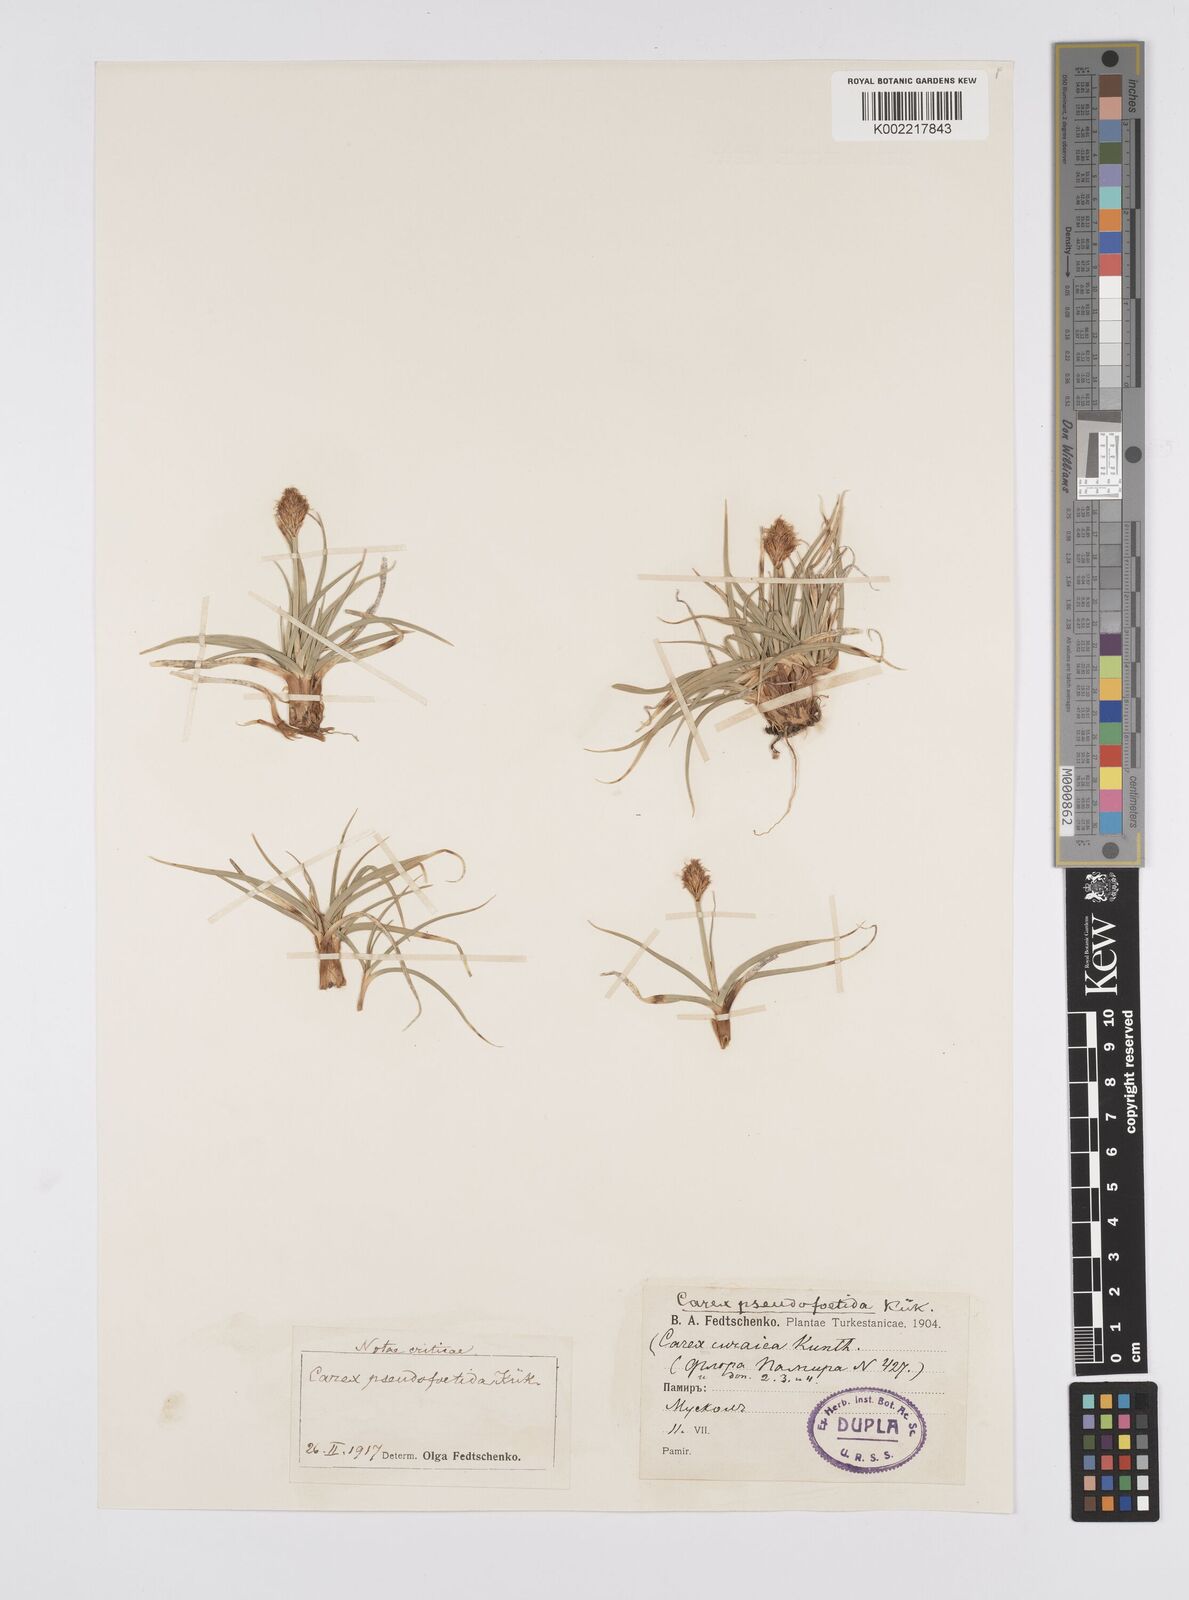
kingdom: Plantae
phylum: Tracheophyta
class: Liliopsida
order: Poales
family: Cyperaceae
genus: Carex
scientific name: Carex pseudofoetida
